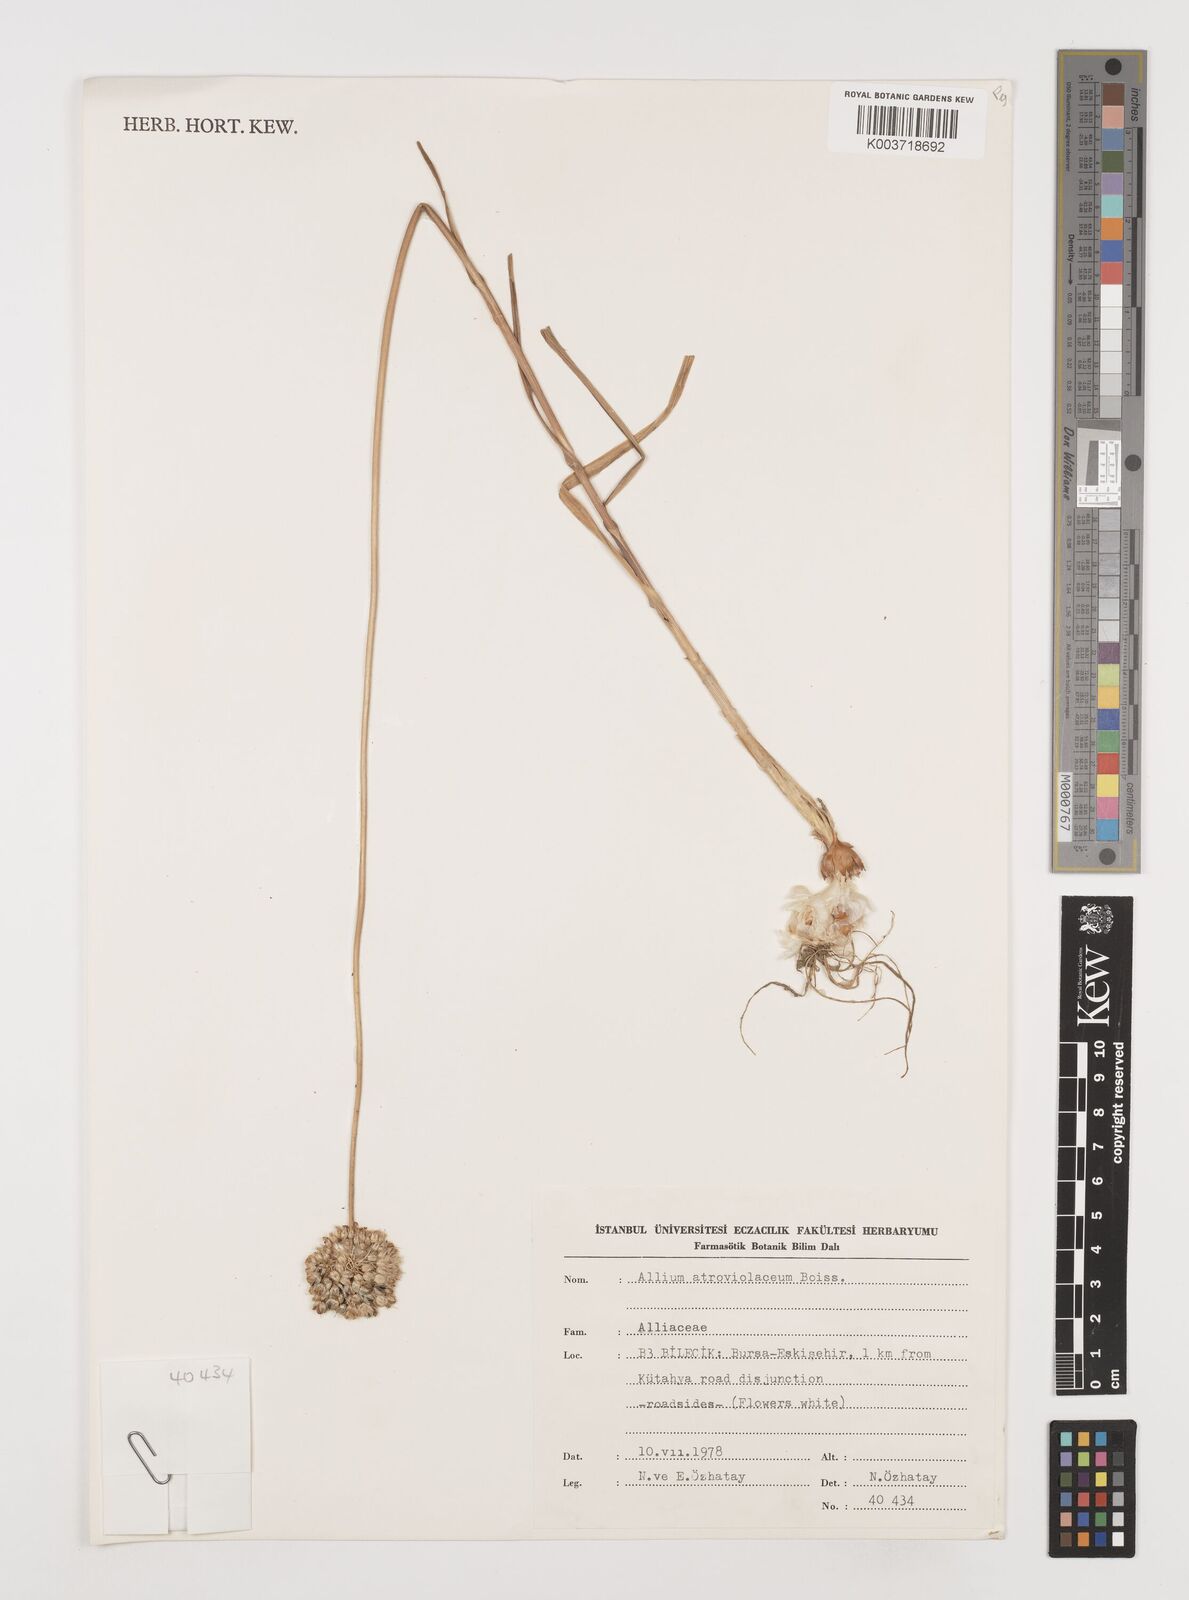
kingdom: Plantae
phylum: Tracheophyta
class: Liliopsida
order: Asparagales
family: Amaryllidaceae
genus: Allium
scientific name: Allium atroviolaceum
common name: Broadleaf wild leek
